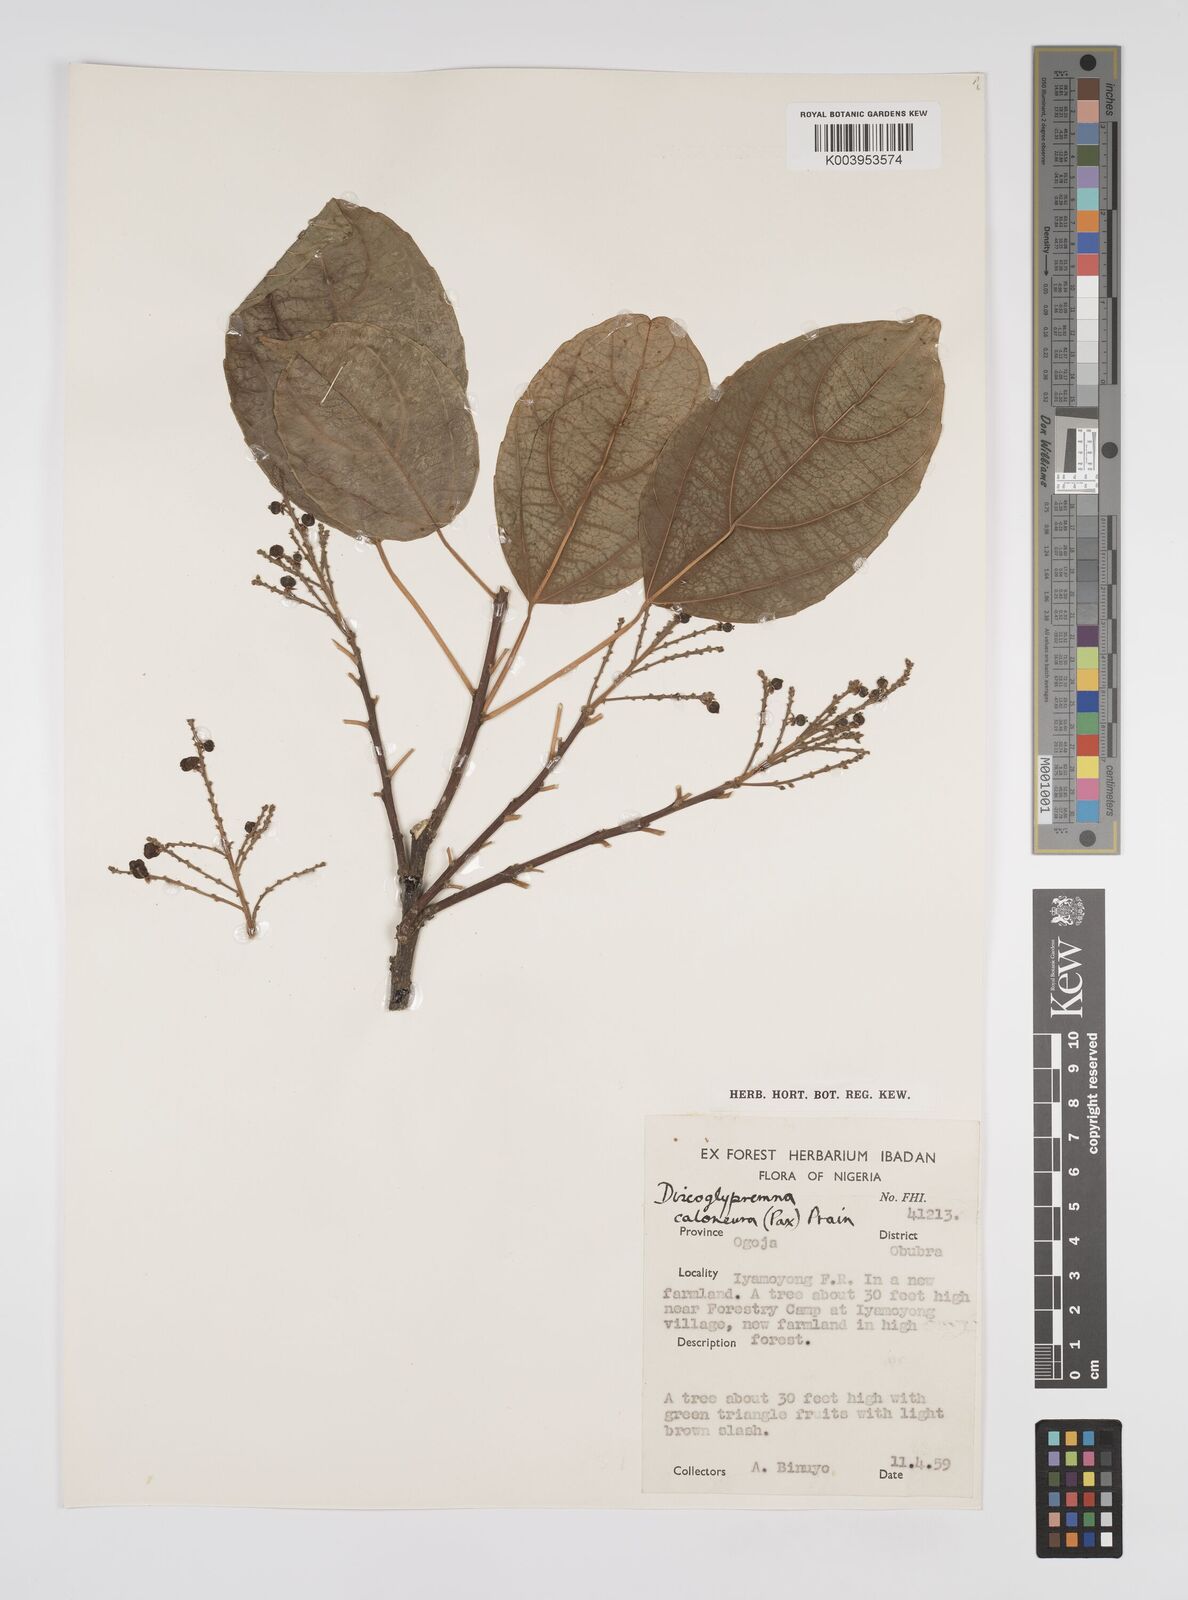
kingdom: Plantae
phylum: Tracheophyta
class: Magnoliopsida
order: Malpighiales
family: Euphorbiaceae
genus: Discoglypremna
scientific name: Discoglypremna caloneura
